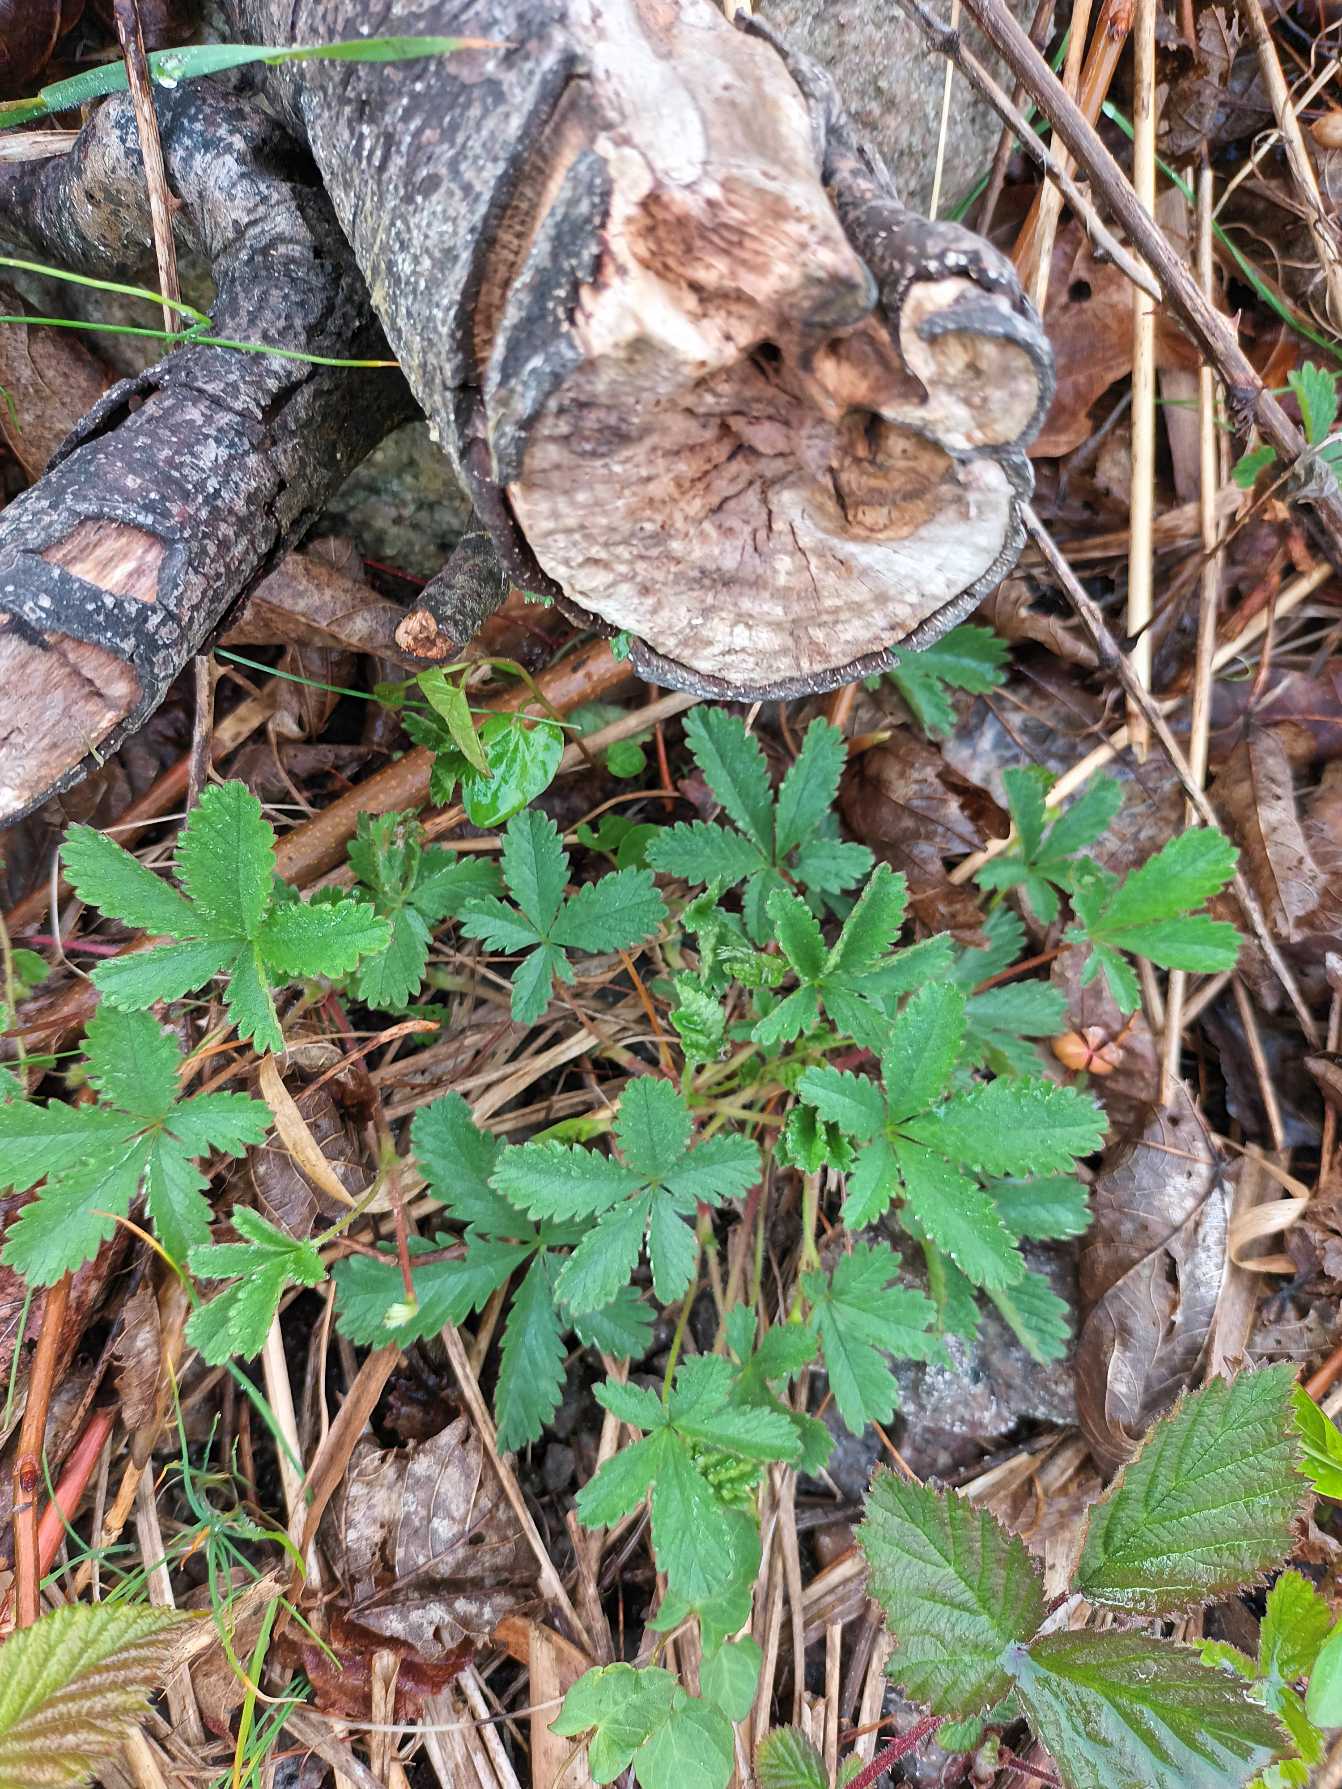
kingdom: Plantae
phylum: Tracheophyta
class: Magnoliopsida
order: Rosales
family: Rosaceae
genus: Potentilla
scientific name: Potentilla reptans
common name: Krybende potentil
